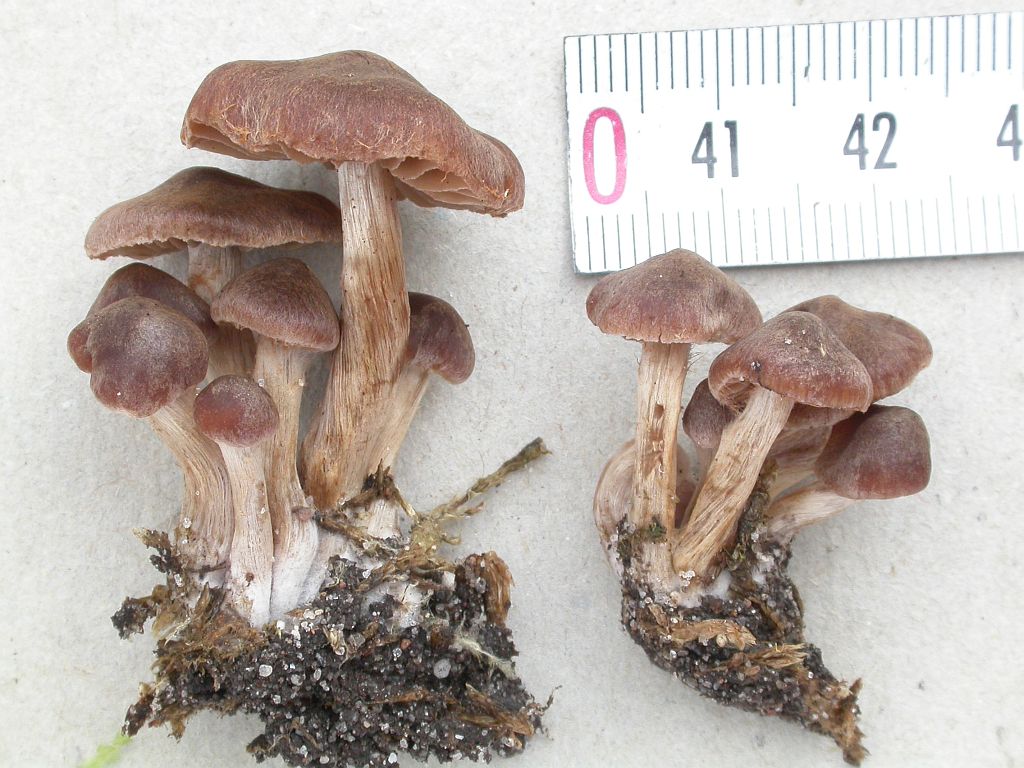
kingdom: Fungi
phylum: Basidiomycota
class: Agaricomycetes
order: Agaricales
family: Cortinariaceae
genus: Cortinarius
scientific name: Cortinarius ammophiloides
